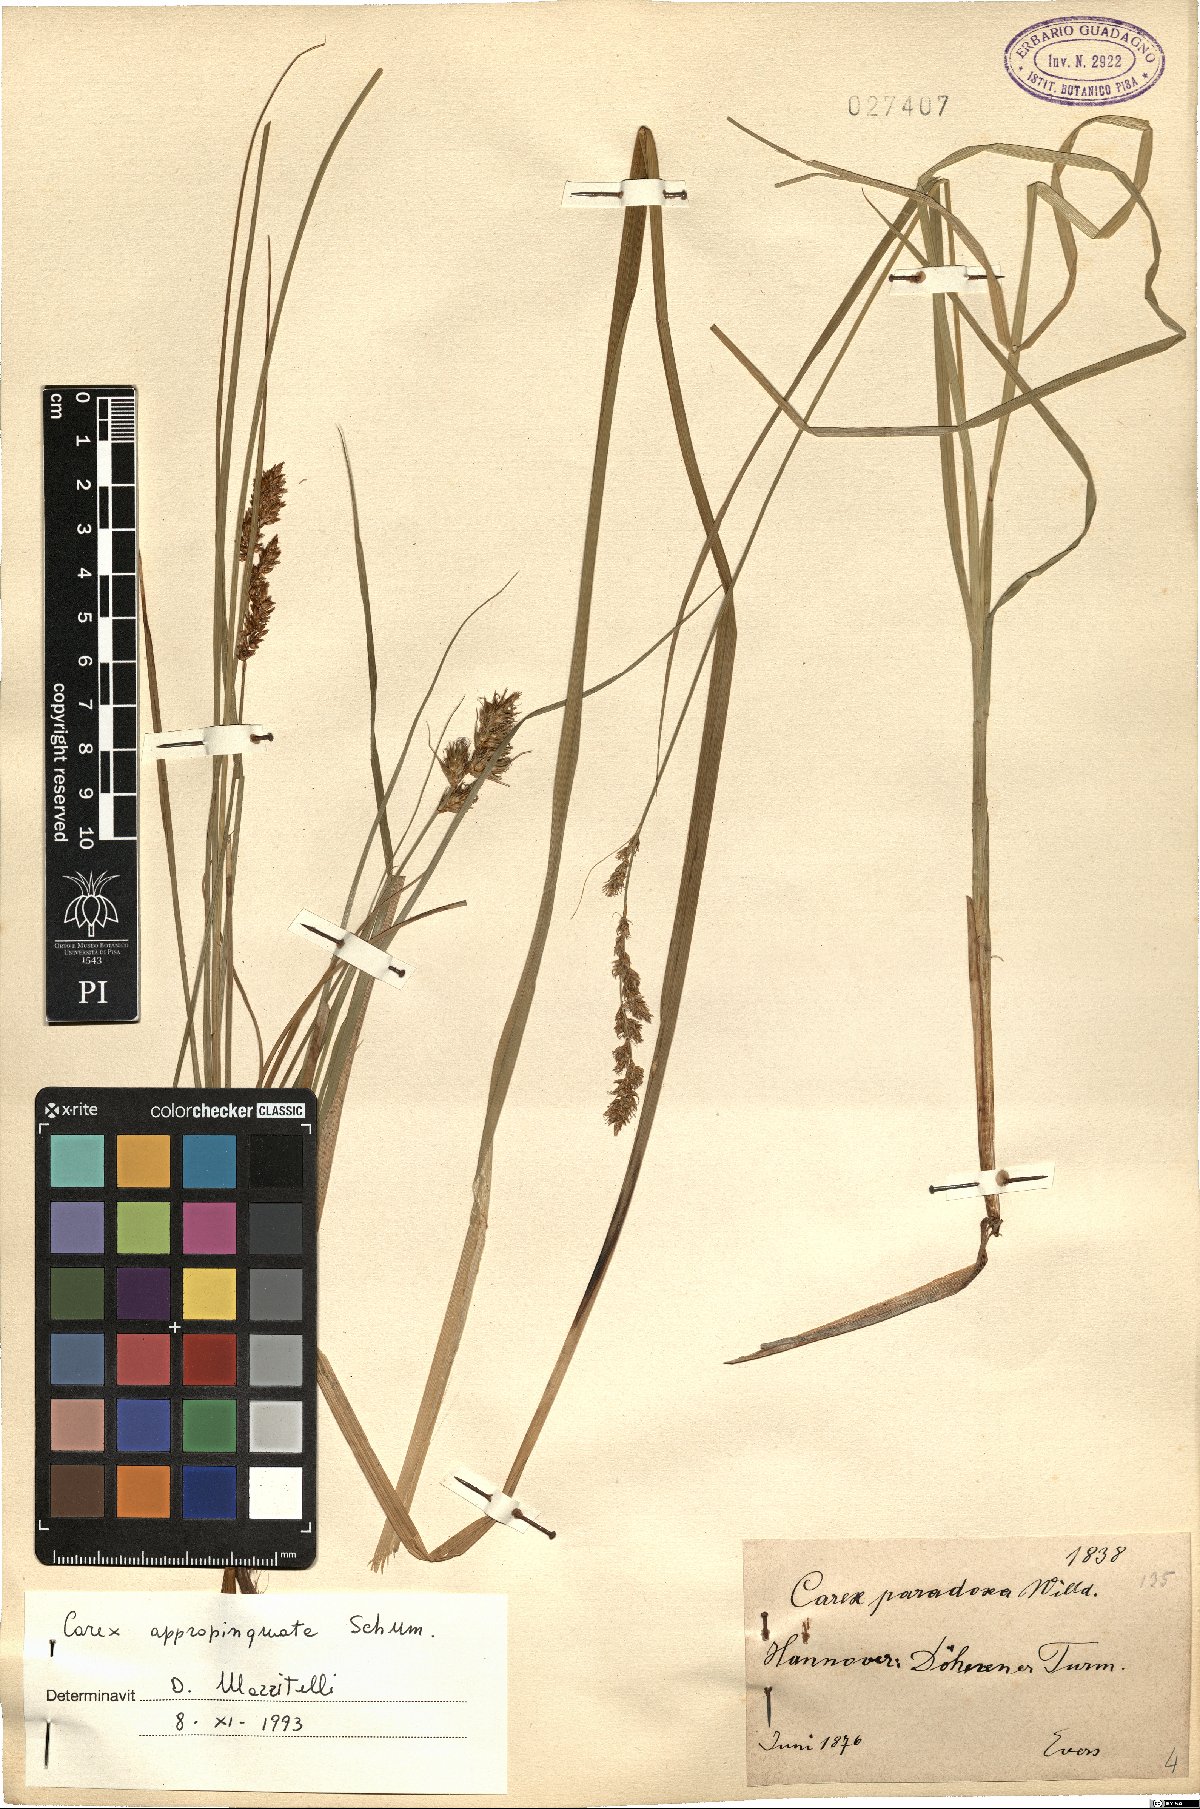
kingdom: Plantae
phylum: Tracheophyta
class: Liliopsida
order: Poales
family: Cyperaceae
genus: Carex
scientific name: Carex appropinquata
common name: Fibrous tussock-sedge
